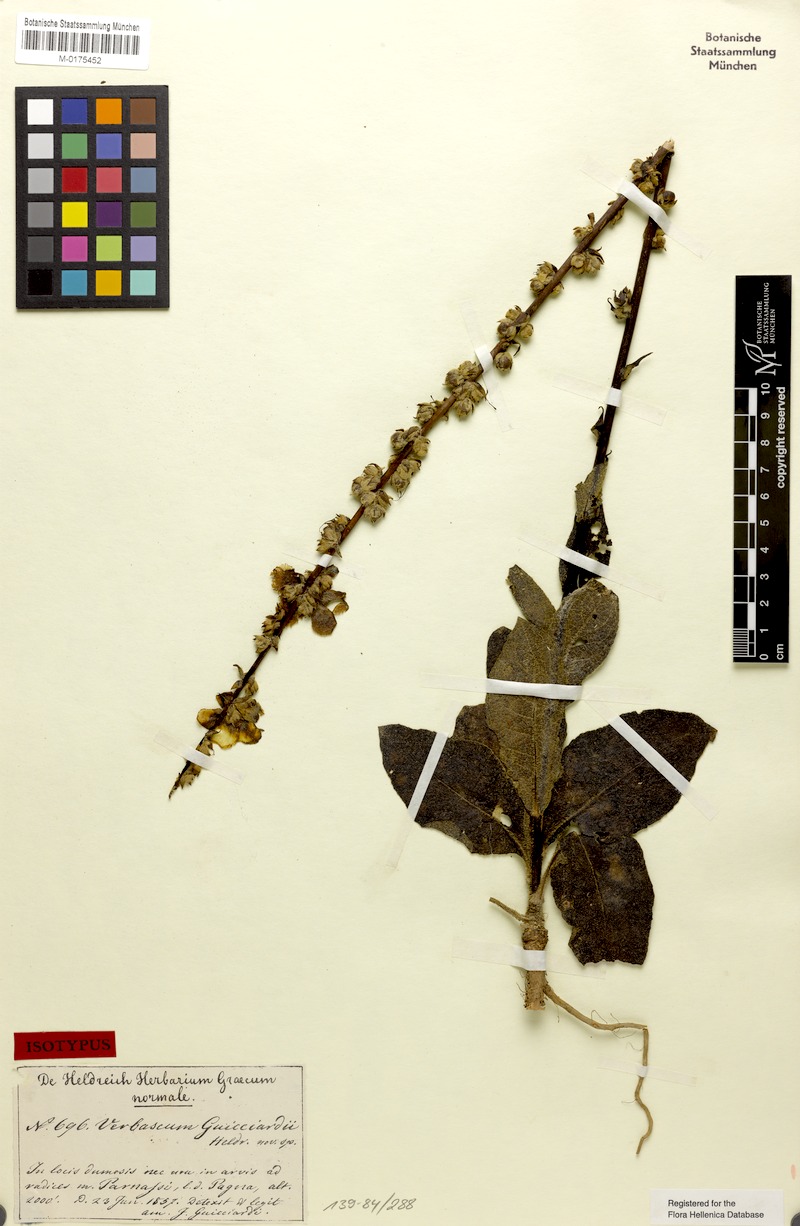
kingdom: Plantae
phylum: Tracheophyta
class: Magnoliopsida
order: Lamiales
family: Scrophulariaceae
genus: Verbascum
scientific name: Verbascum guicciardii
